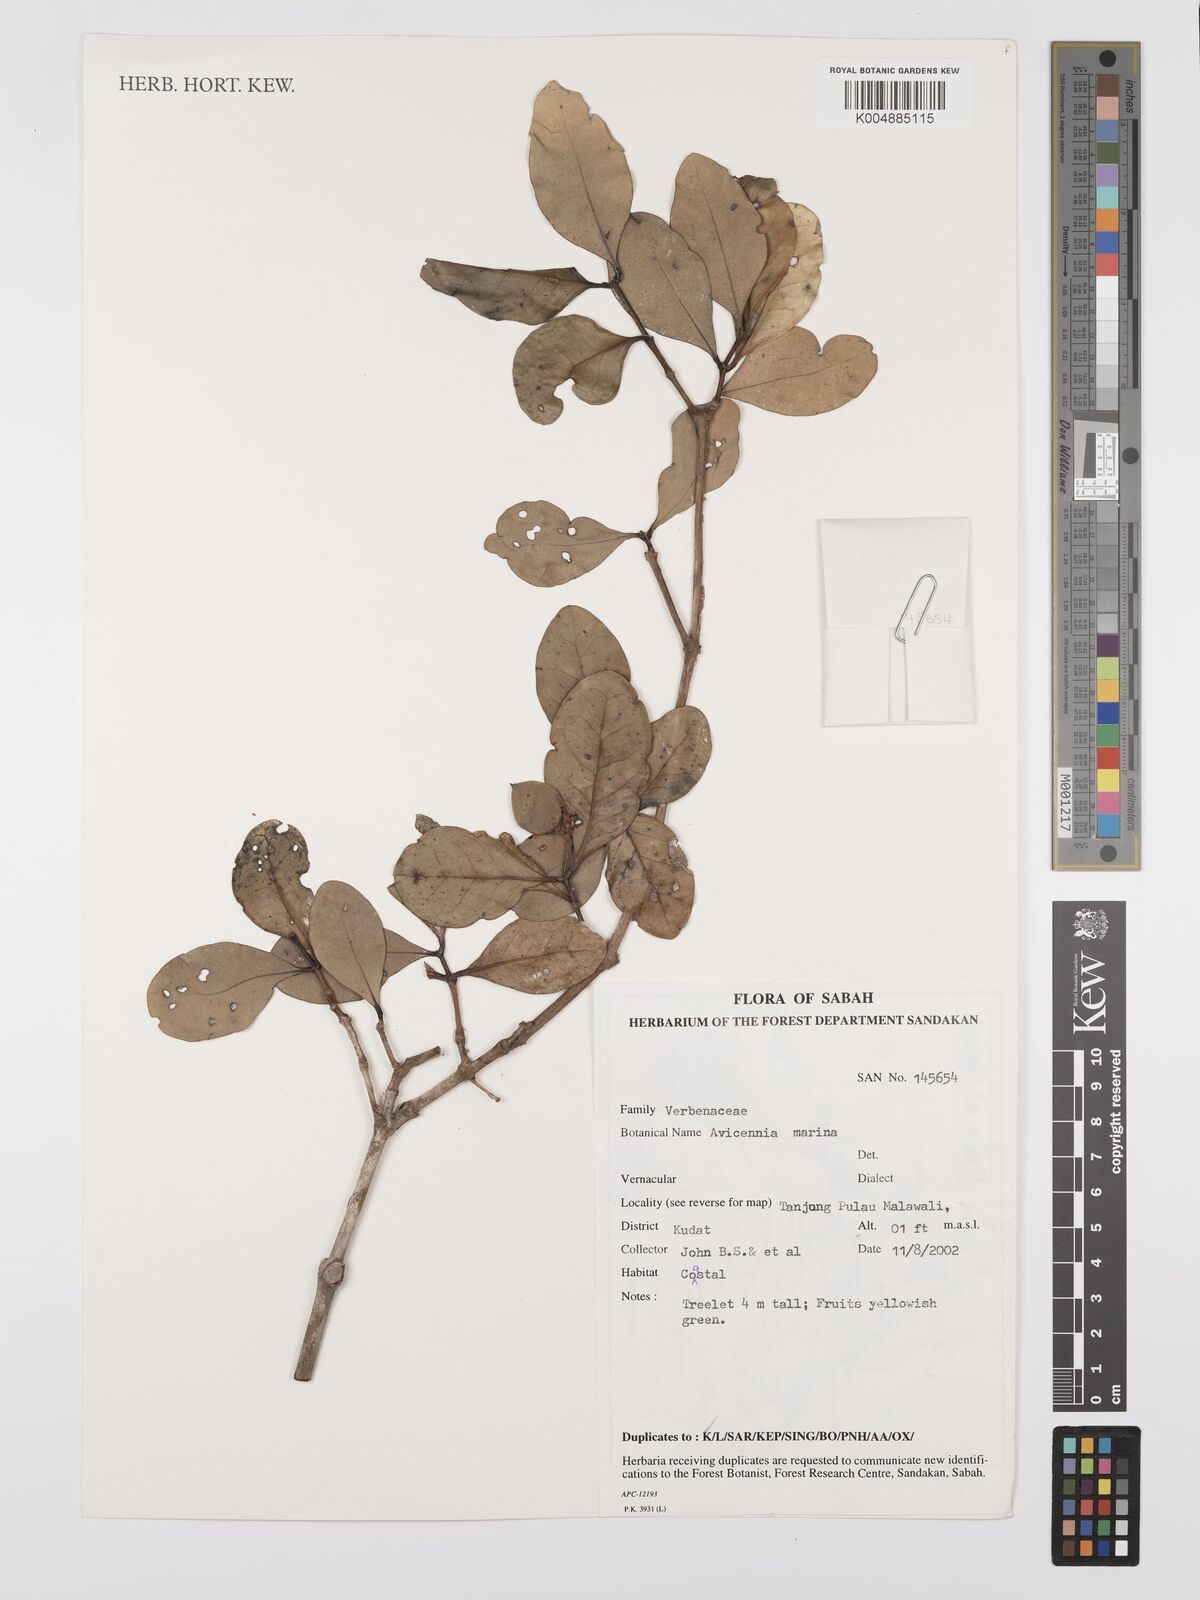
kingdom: Plantae
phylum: Tracheophyta
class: Magnoliopsida
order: Lamiales
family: Acanthaceae
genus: Avicennia
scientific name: Avicennia marina
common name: Gray mangrove
